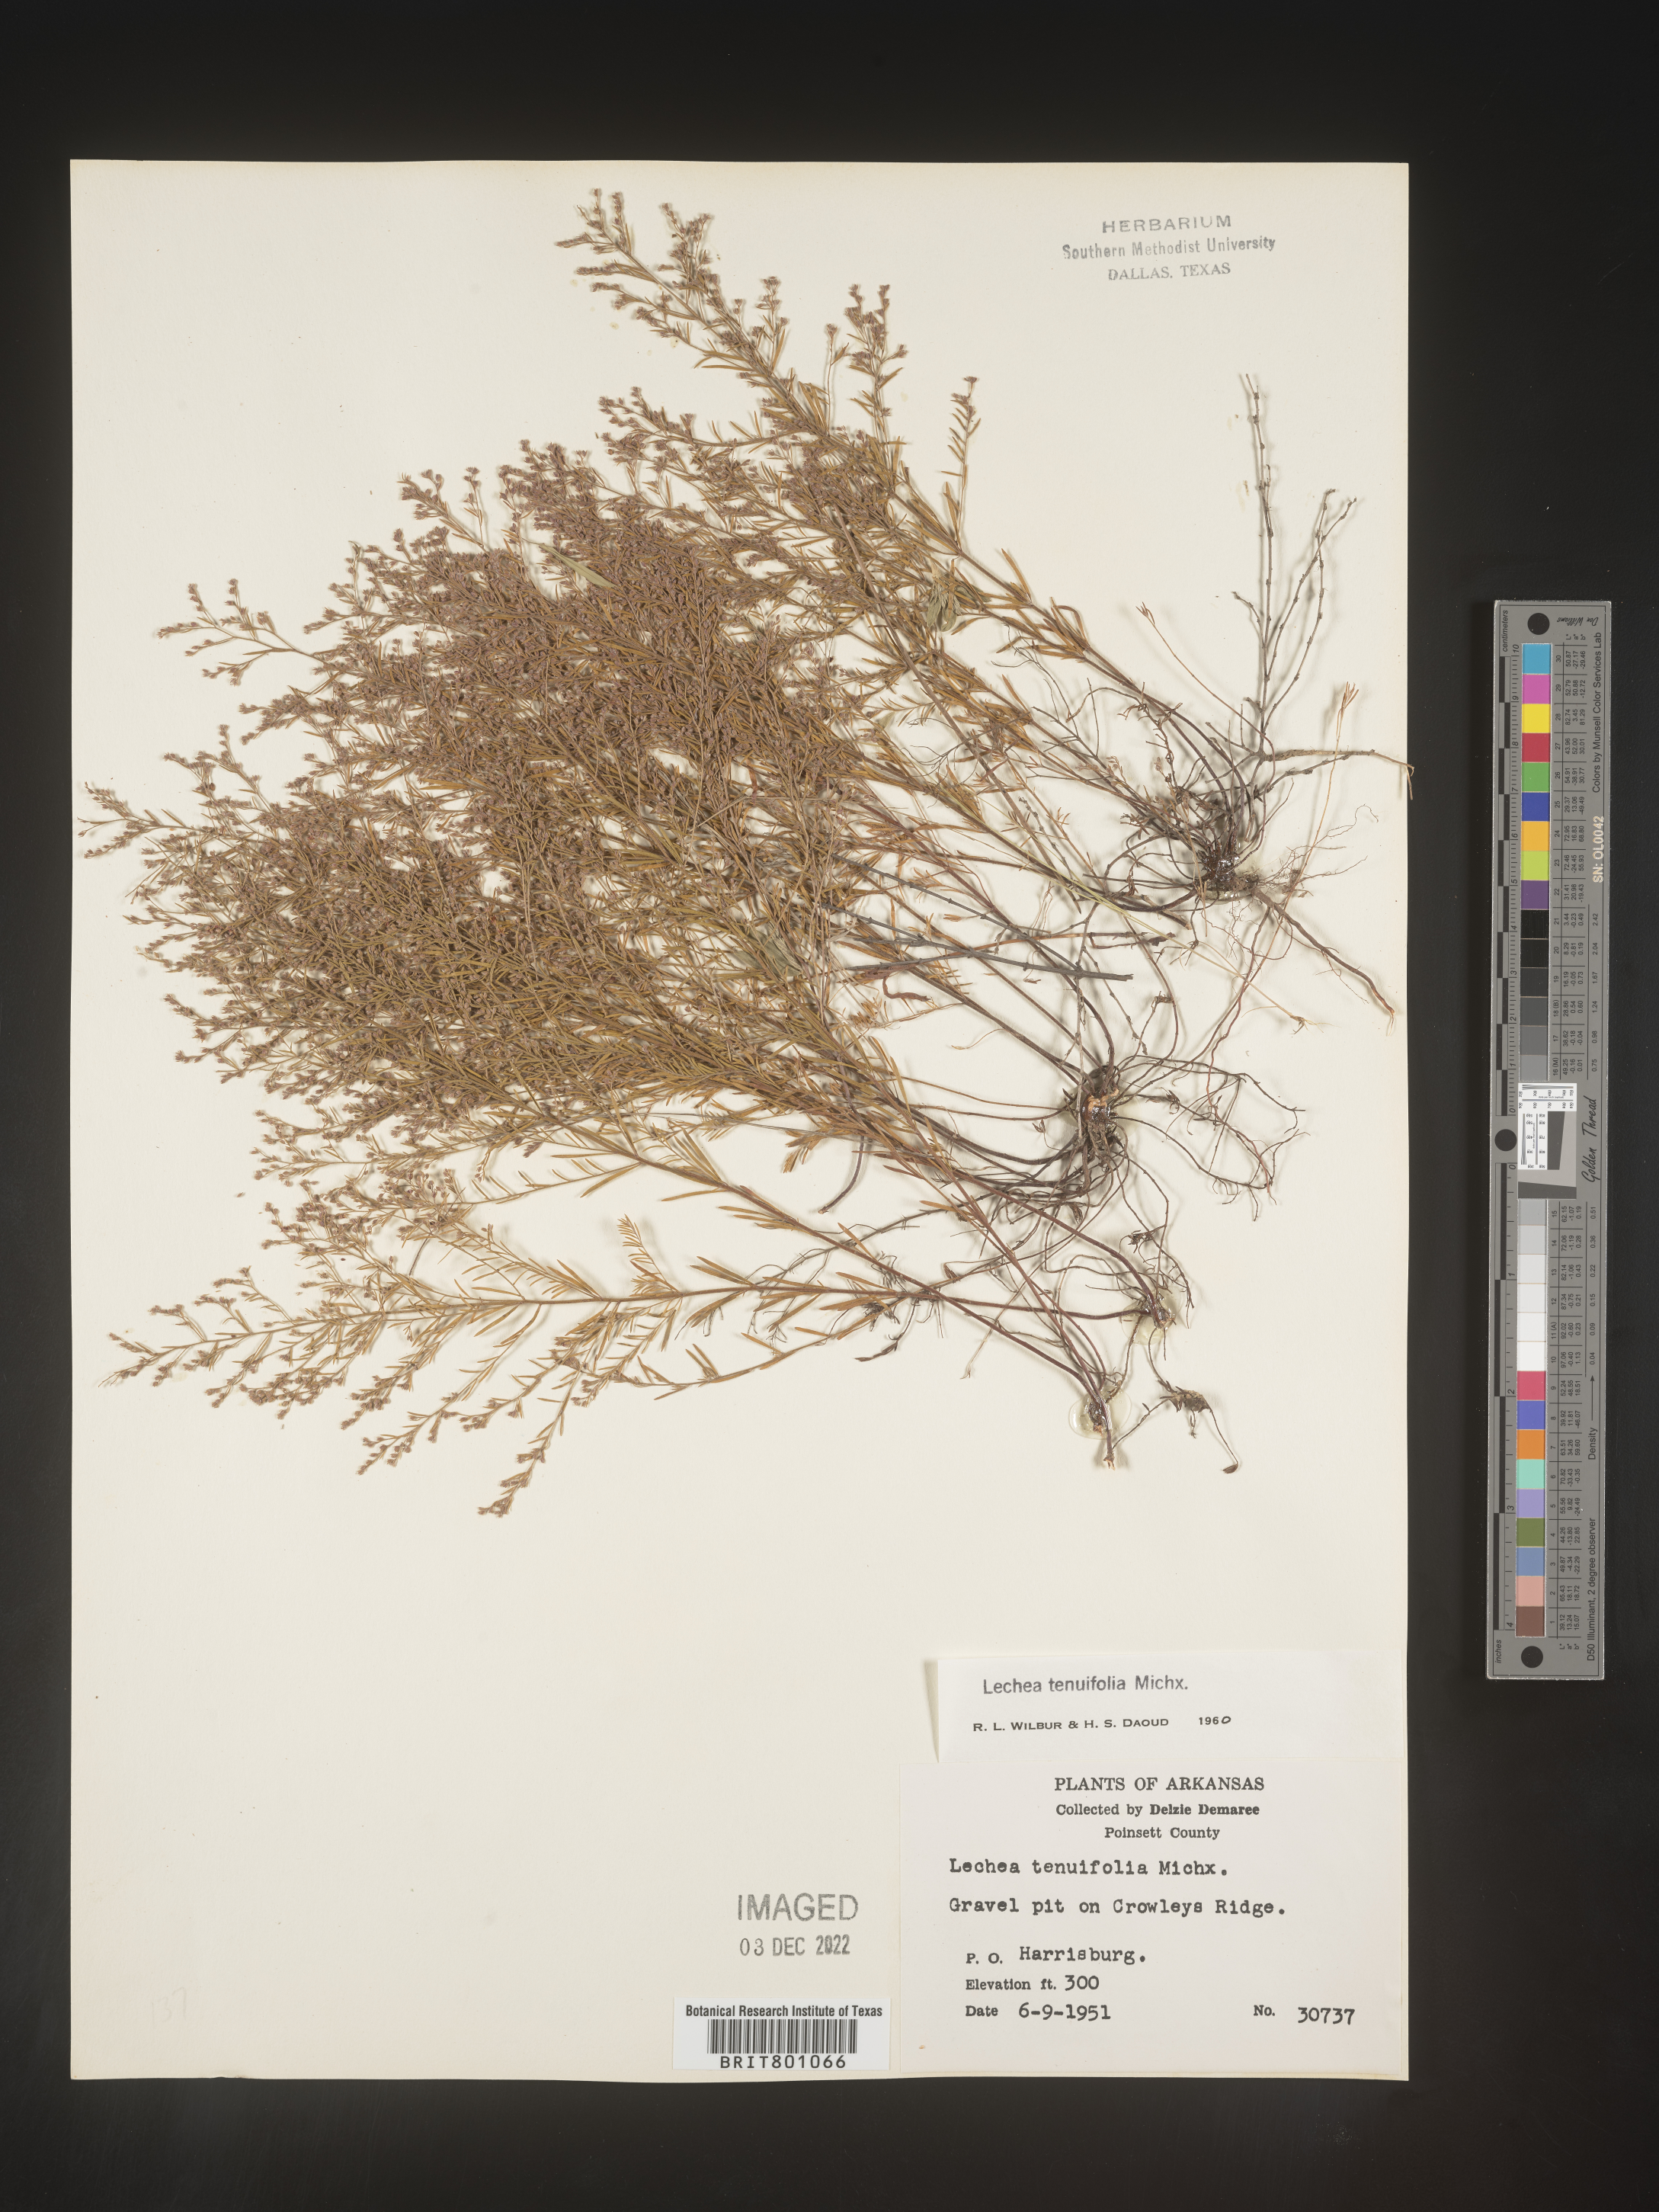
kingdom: Plantae
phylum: Tracheophyta
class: Magnoliopsida
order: Malvales
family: Cistaceae
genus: Lechea
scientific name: Lechea tenuifolia
